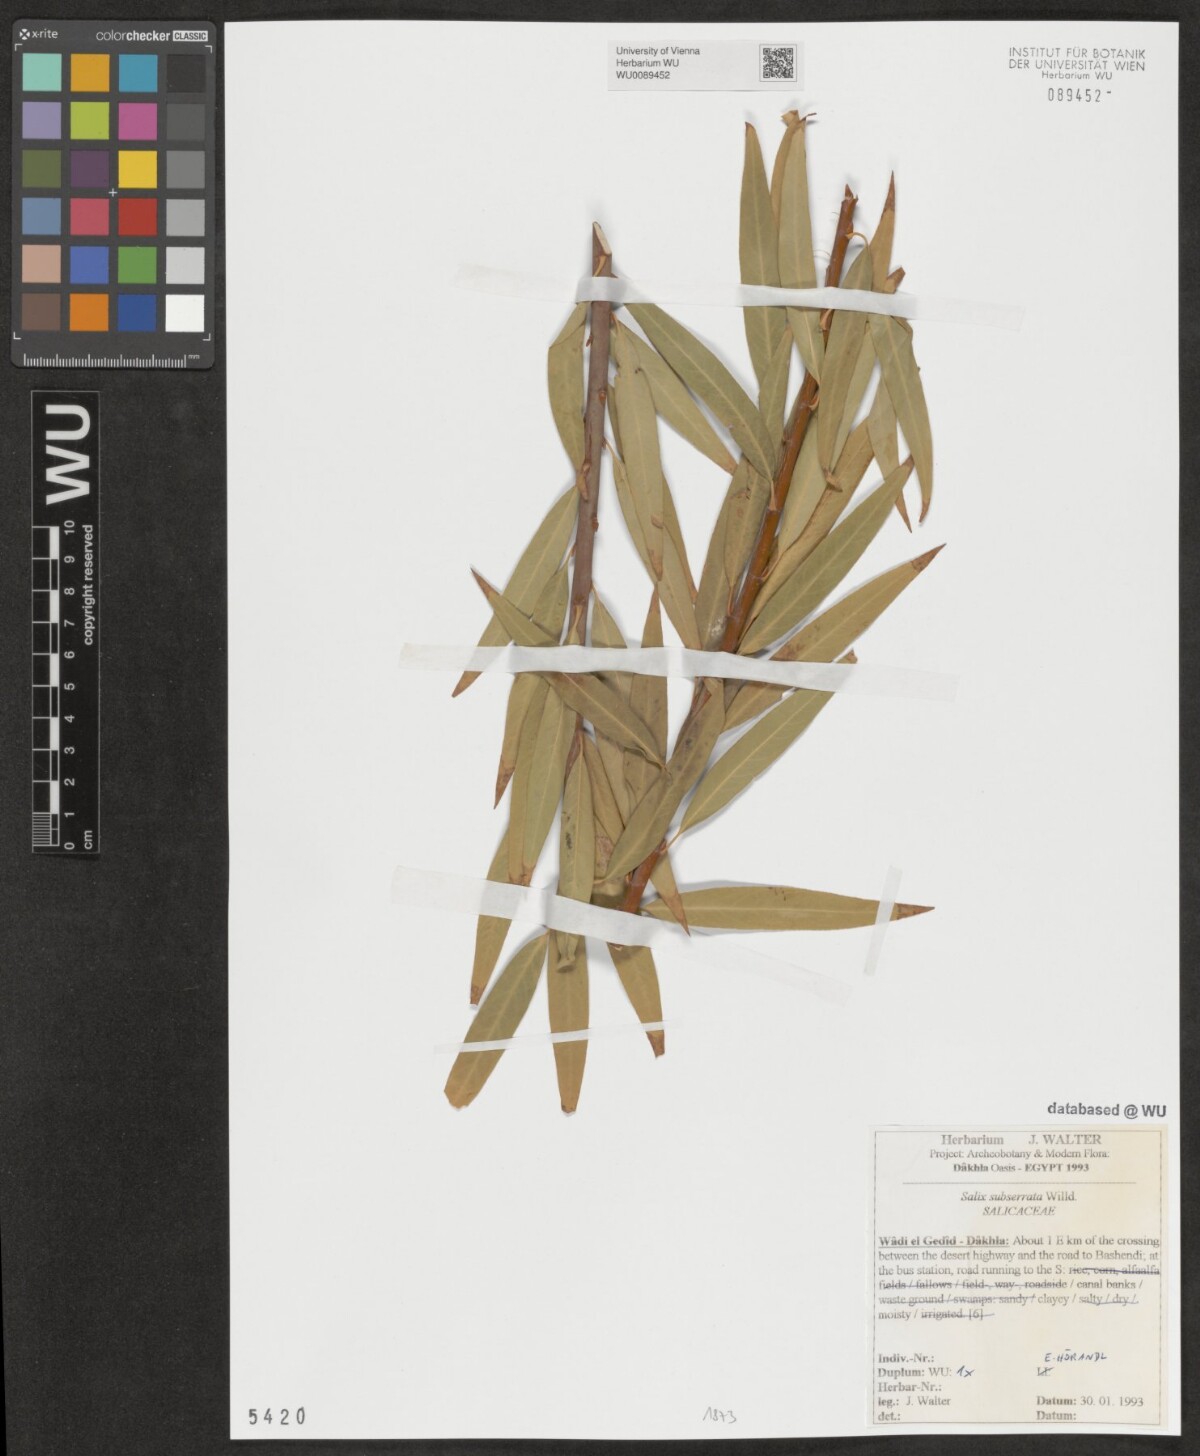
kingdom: Plantae
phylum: Tracheophyta
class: Magnoliopsida
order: Malpighiales
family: Salicaceae
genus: Salix
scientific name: Salix mucronata
